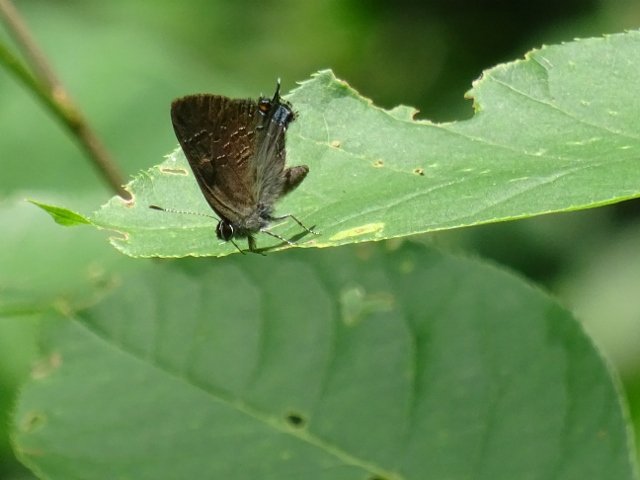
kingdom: Animalia
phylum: Arthropoda
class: Insecta
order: Lepidoptera
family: Lycaenidae
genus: Satyrium
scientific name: Satyrium calanus
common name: Banded Hairstreak
